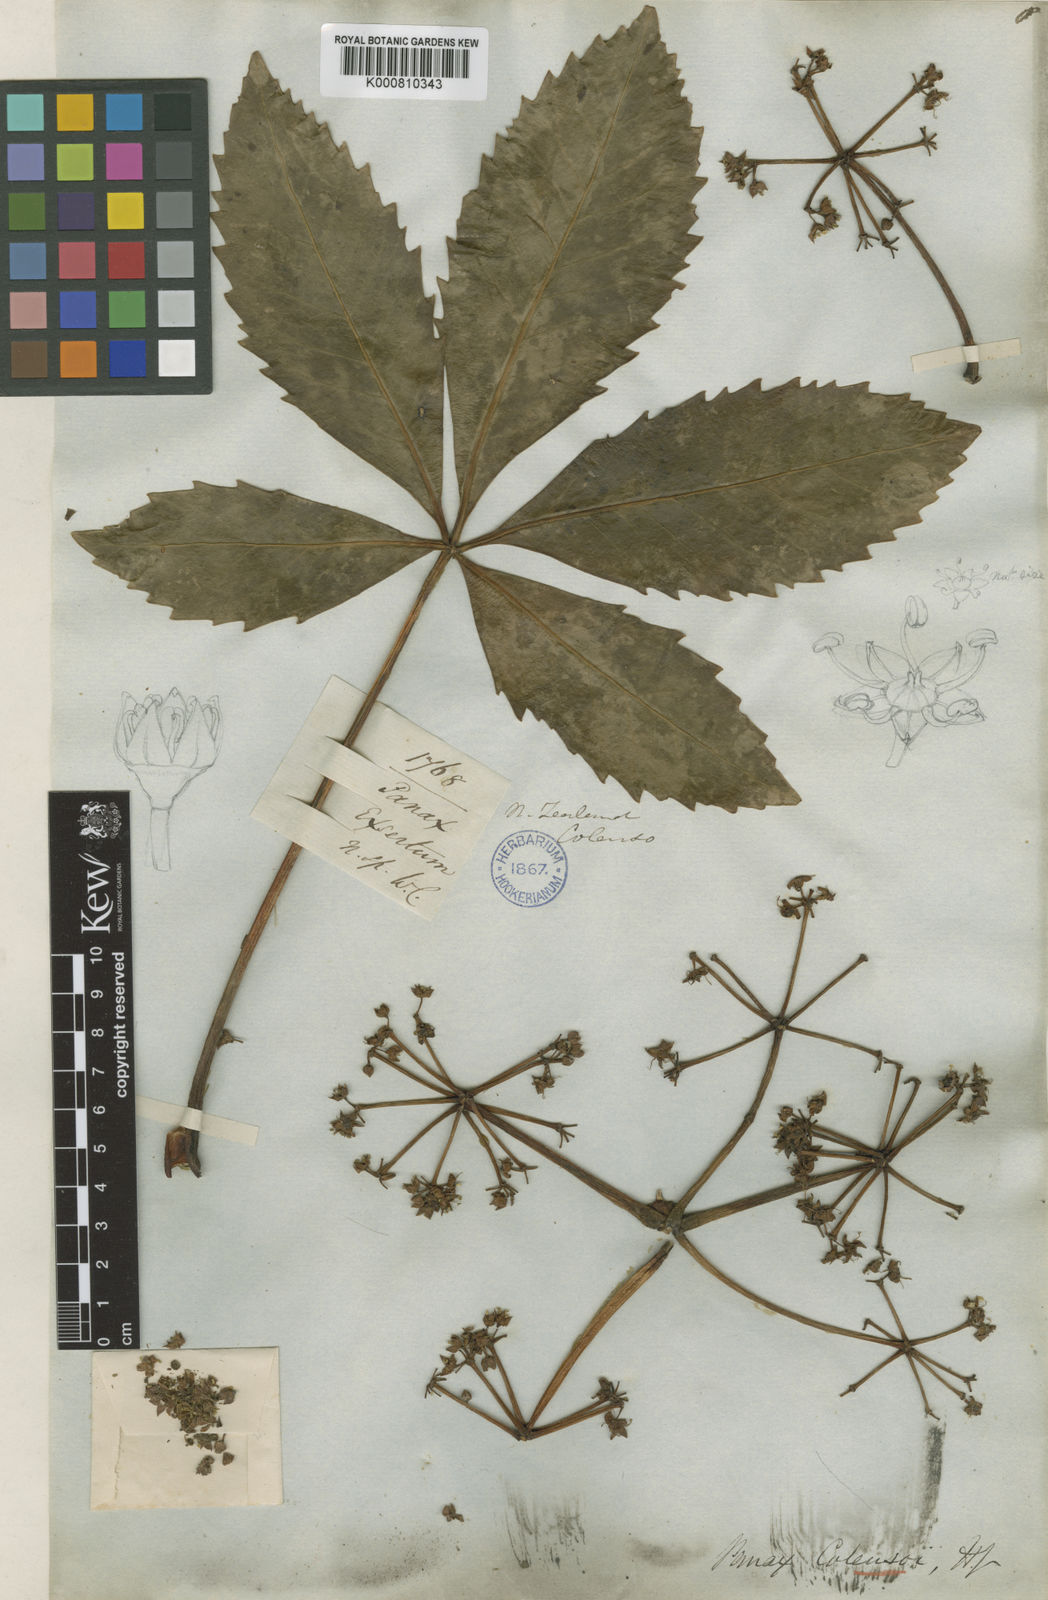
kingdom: Plantae
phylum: Tracheophyta
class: Magnoliopsida
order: Apiales
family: Araliaceae
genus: Neopanax
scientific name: Neopanax colensoi
